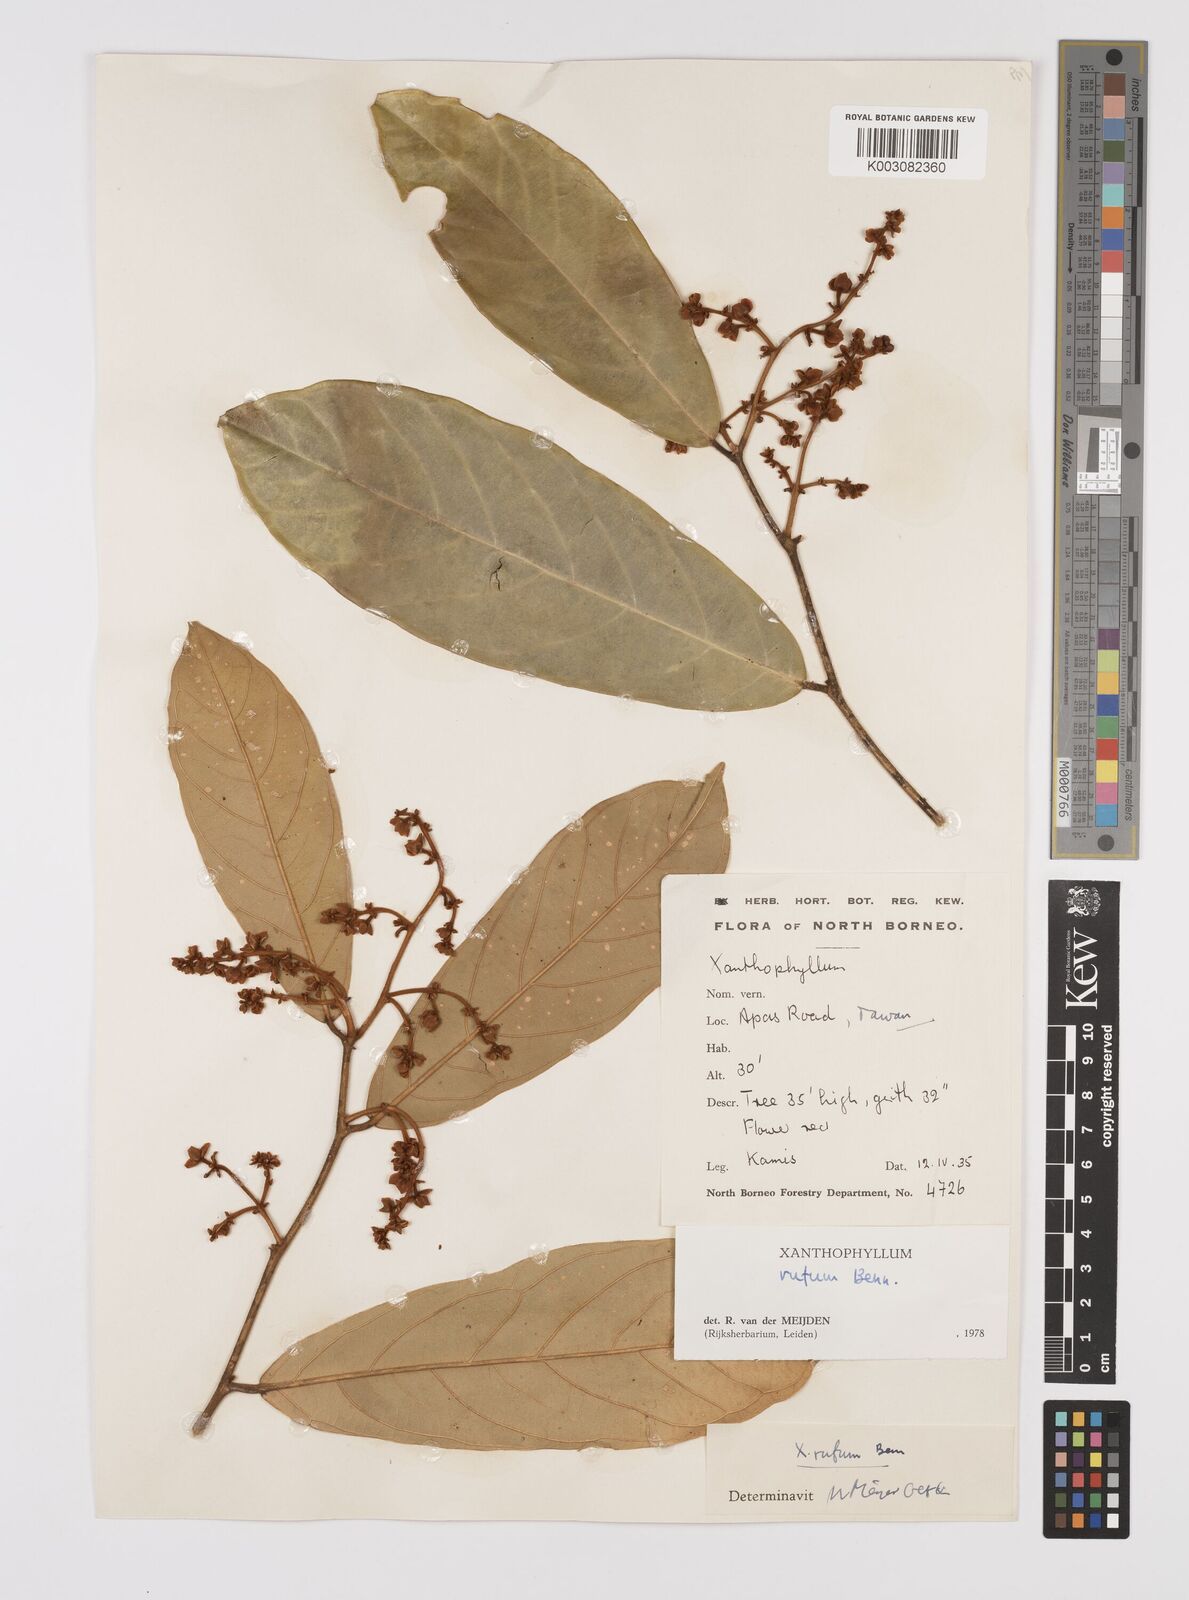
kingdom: Plantae
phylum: Tracheophyta
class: Magnoliopsida
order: Fabales
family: Polygalaceae
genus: Xanthophyllum
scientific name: Xanthophyllum rufum
